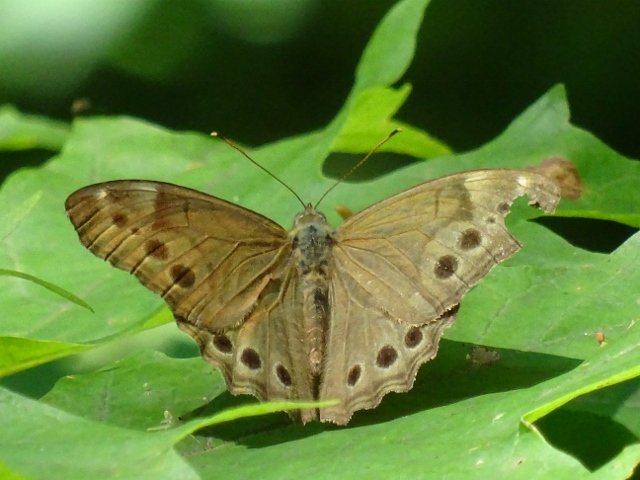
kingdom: Animalia
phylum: Arthropoda
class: Insecta
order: Lepidoptera
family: Nymphalidae
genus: Lethe
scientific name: Lethe anthedon
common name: Northern Pearly-Eye
